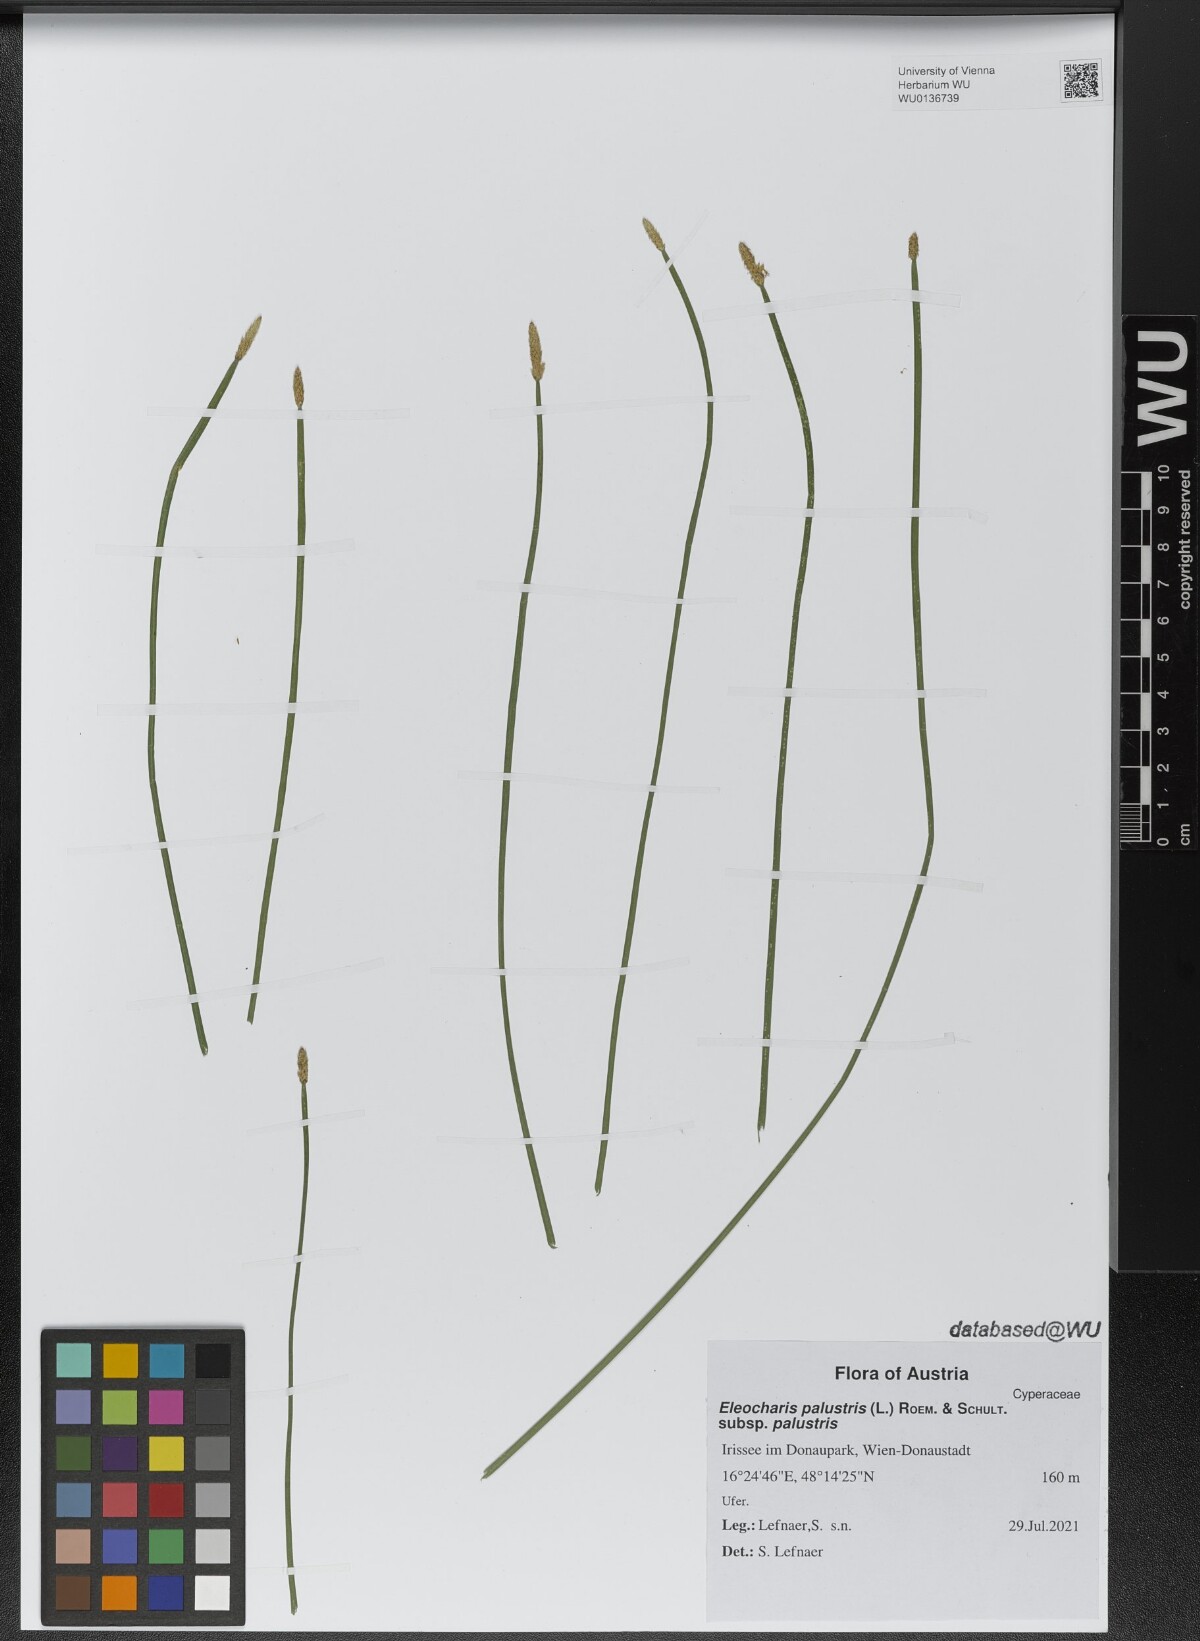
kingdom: Plantae
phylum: Tracheophyta
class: Liliopsida
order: Poales
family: Cyperaceae
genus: Eleocharis
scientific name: Eleocharis palustris
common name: Common spike-rush
